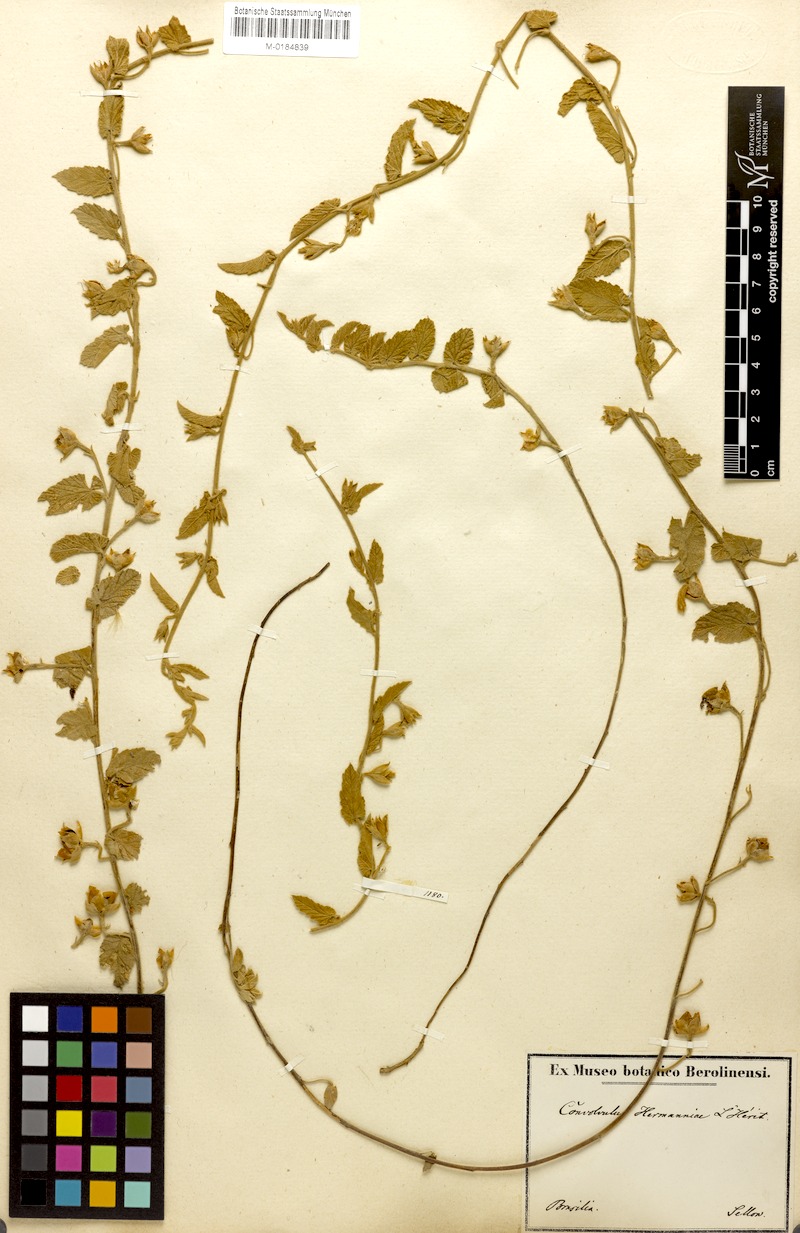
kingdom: Plantae
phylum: Tracheophyta
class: Magnoliopsida
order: Solanales
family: Convolvulaceae
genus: Convolvulus
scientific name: Convolvulus hermanniae
